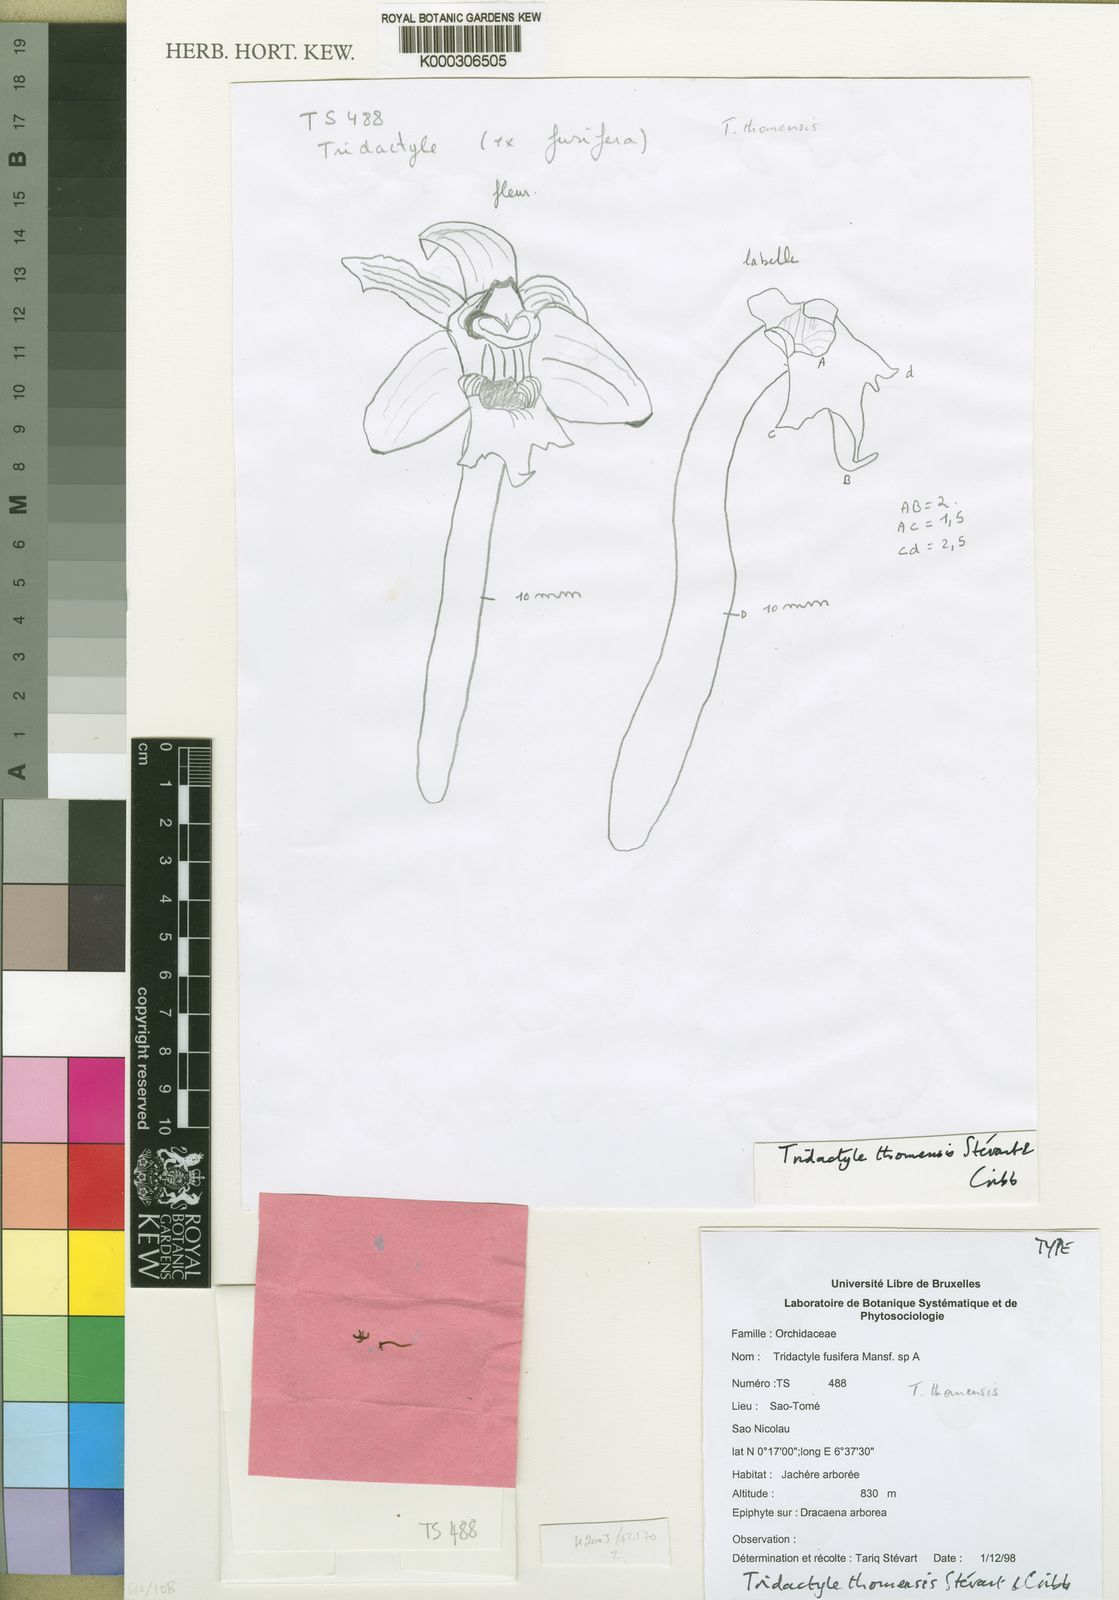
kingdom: Plantae
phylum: Tracheophyta
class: Liliopsida
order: Asparagales
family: Orchidaceae
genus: Tridactyle
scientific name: Tridactyle
